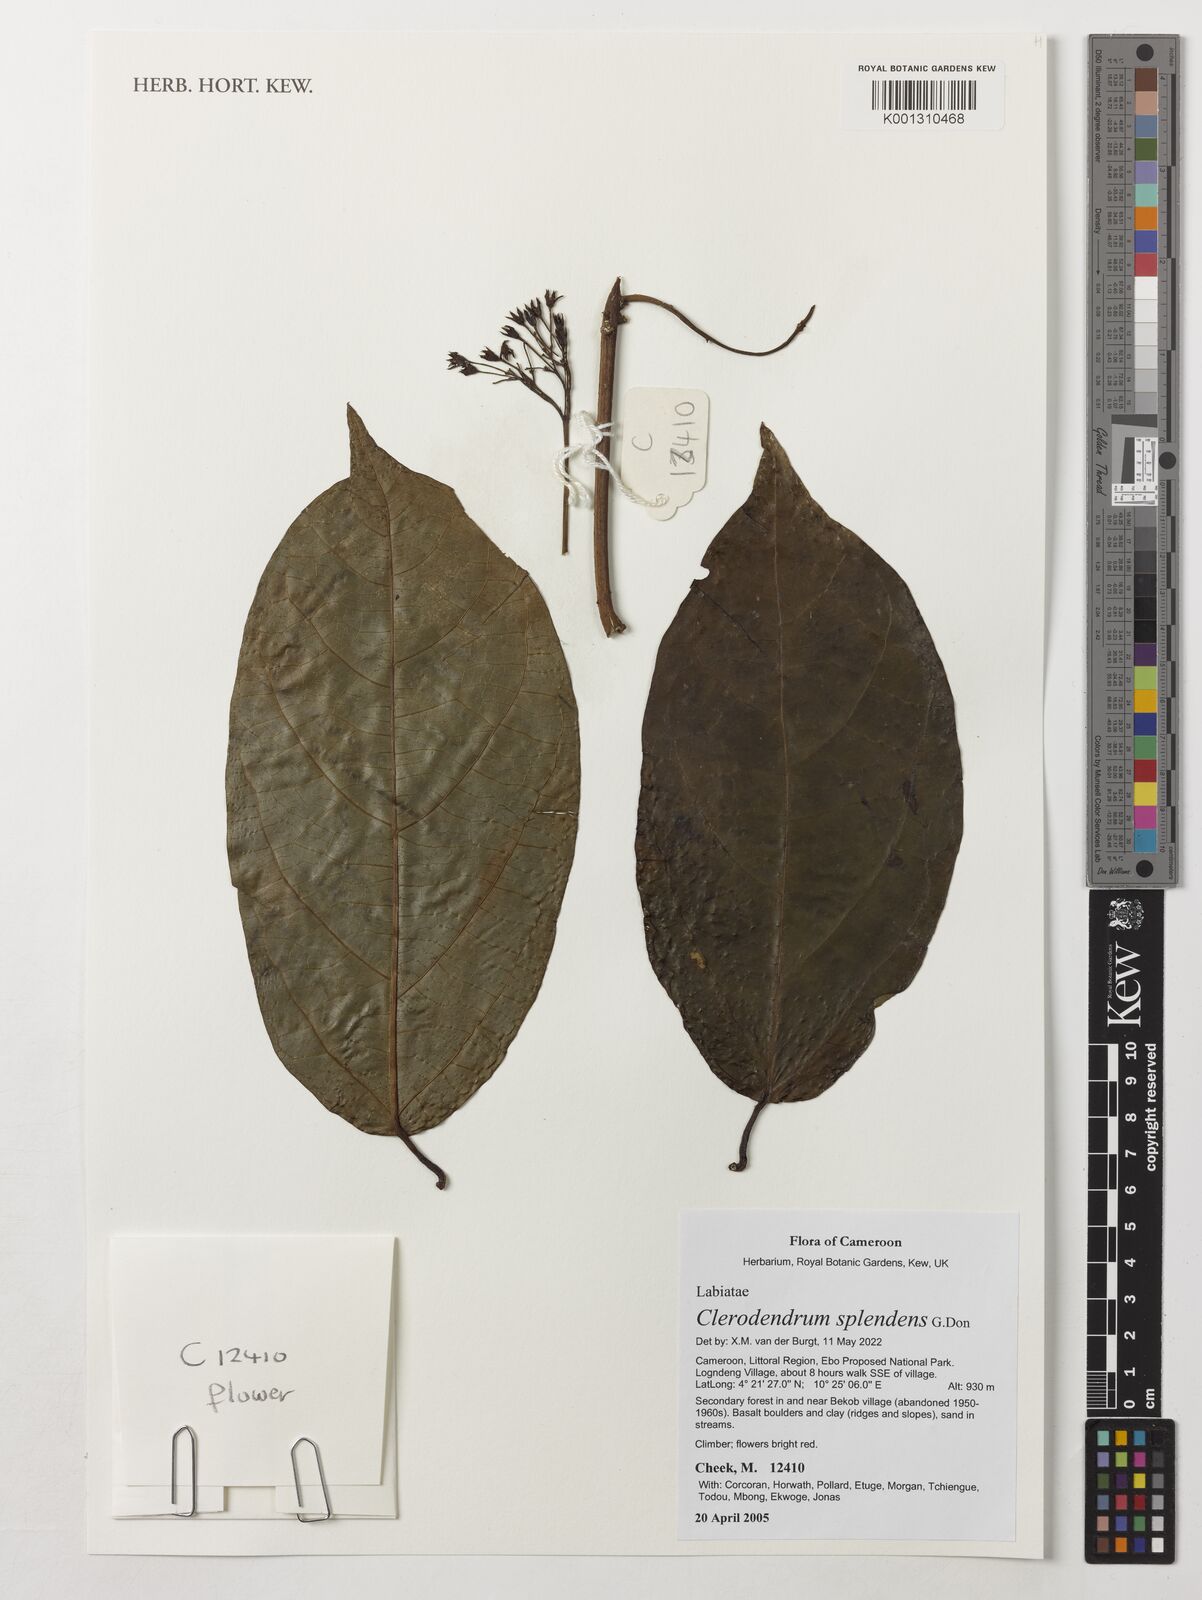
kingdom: Plantae
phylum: Tracheophyta
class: Magnoliopsida
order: Lamiales
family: Lamiaceae
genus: Clerodendrum
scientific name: Clerodendrum splendens
